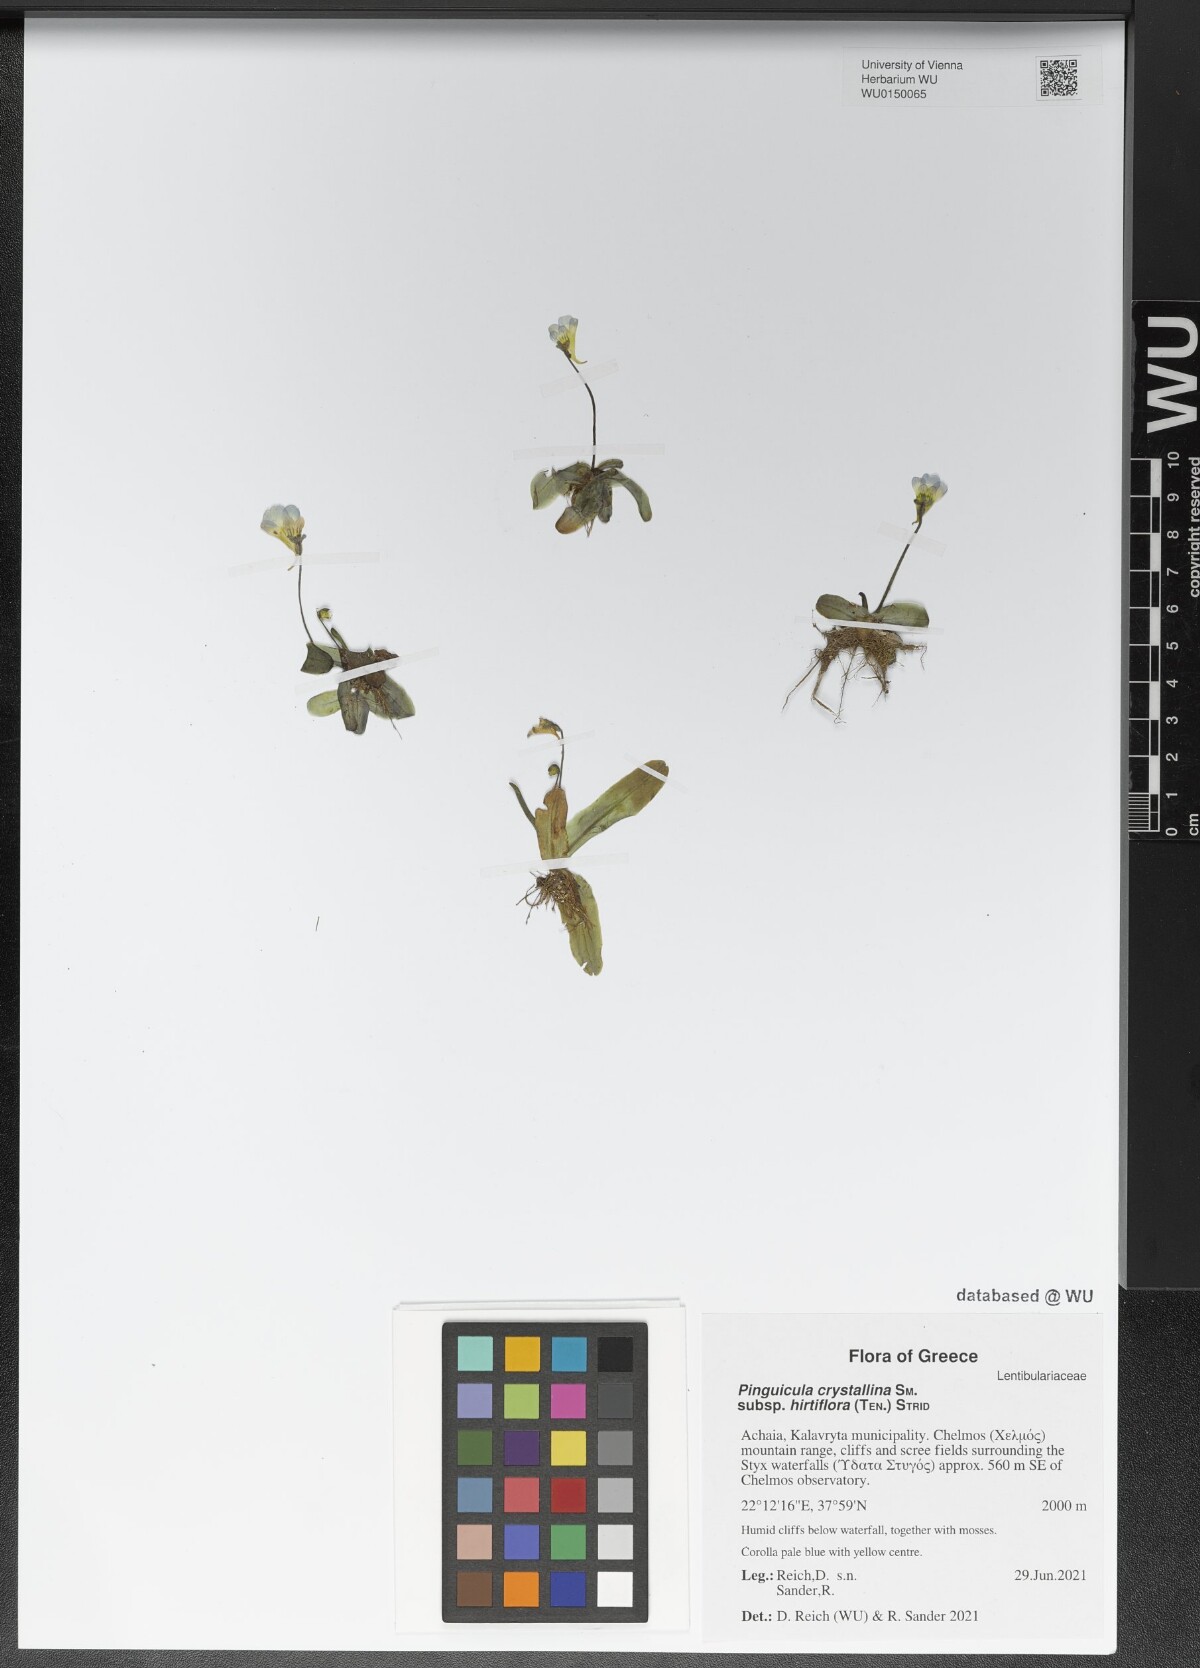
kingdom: Plantae
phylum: Tracheophyta
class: Magnoliopsida
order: Lamiales
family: Lentibulariaceae
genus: Pinguicula
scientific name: Pinguicula crystallina
